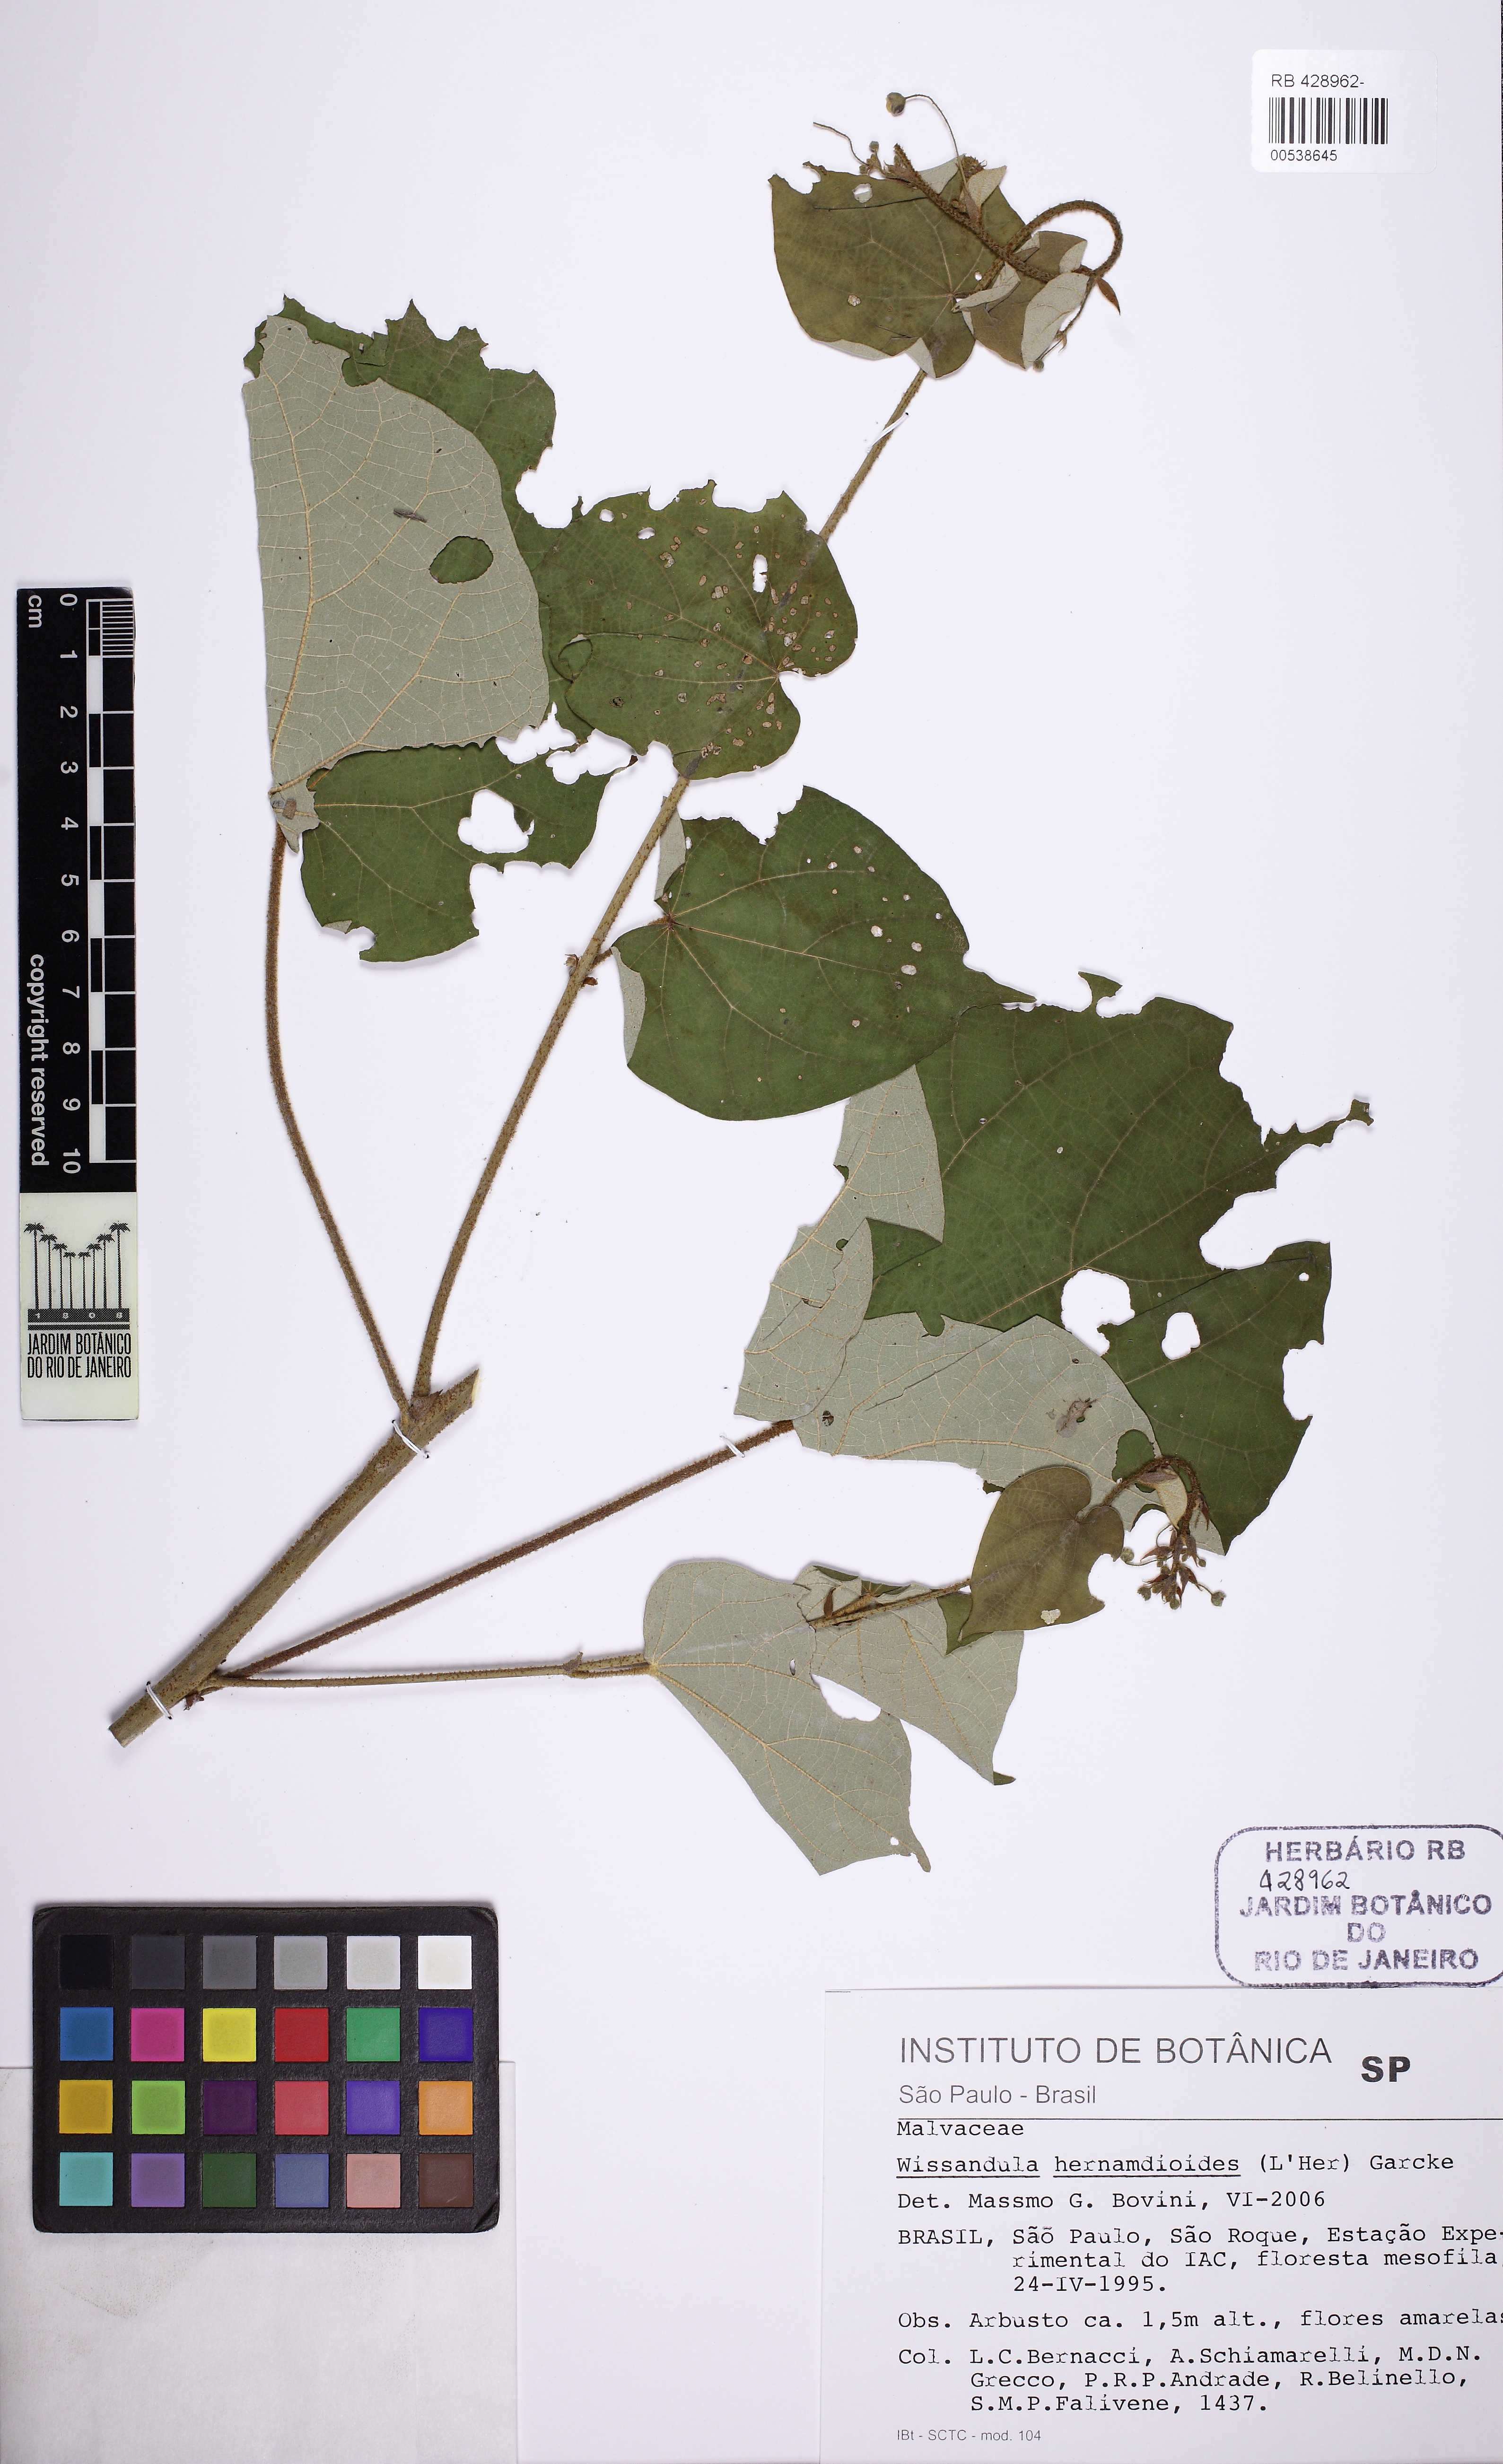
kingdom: Plantae
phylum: Tracheophyta
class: Magnoliopsida
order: Malvales
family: Malvaceae
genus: Wissadula
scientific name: Wissadula hernandioides
